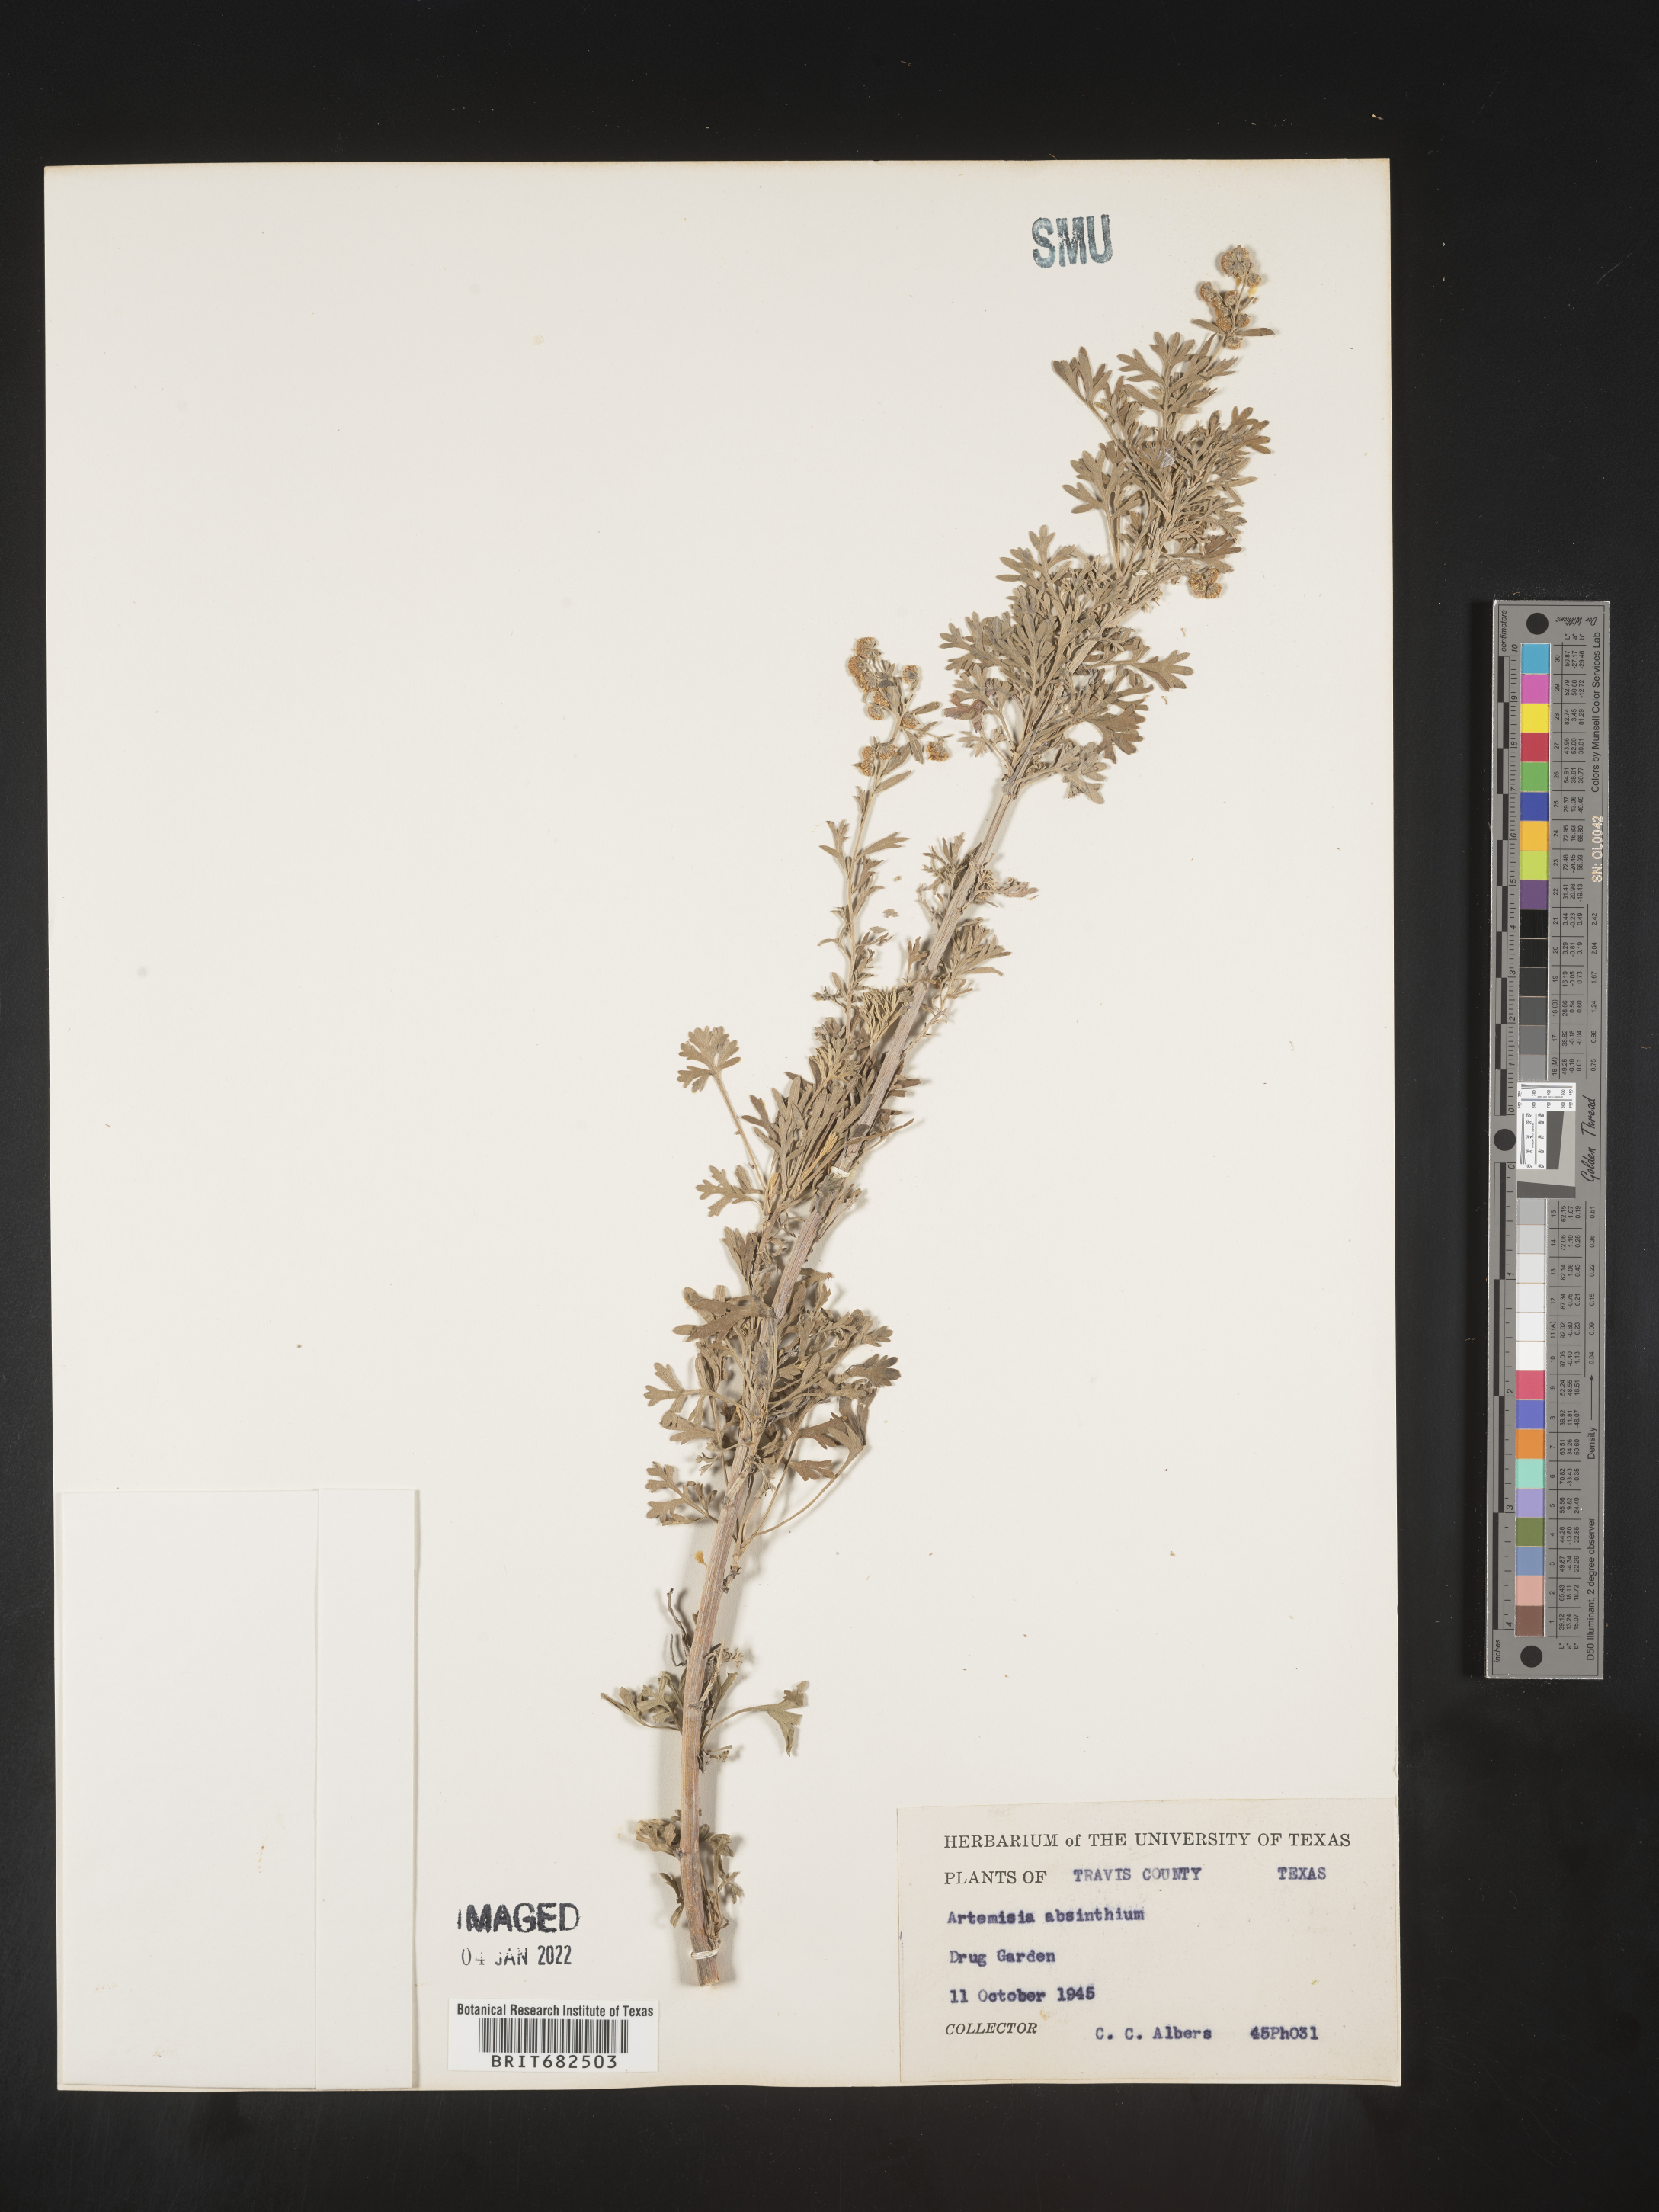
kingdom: Plantae
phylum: Tracheophyta
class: Magnoliopsida
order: Asterales
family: Asteraceae
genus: Artemisia
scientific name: Artemisia
